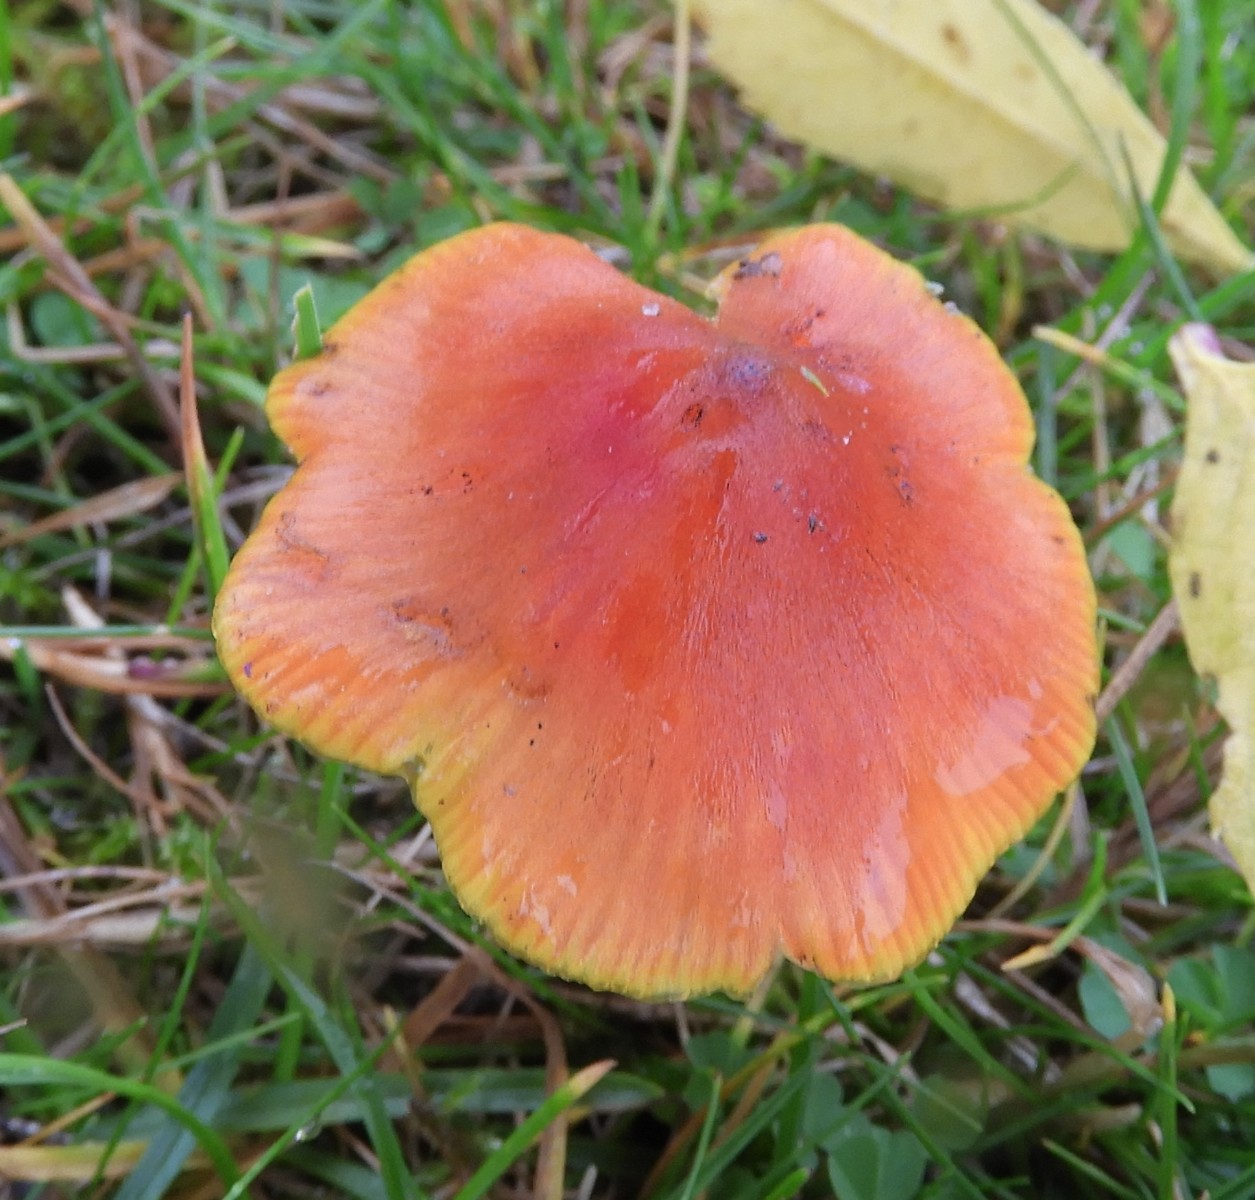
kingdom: Fungi
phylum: Basidiomycota
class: Agaricomycetes
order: Agaricales
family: Hygrophoraceae
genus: Hygrocybe
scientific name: Hygrocybe conica
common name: kegle-vokshat
